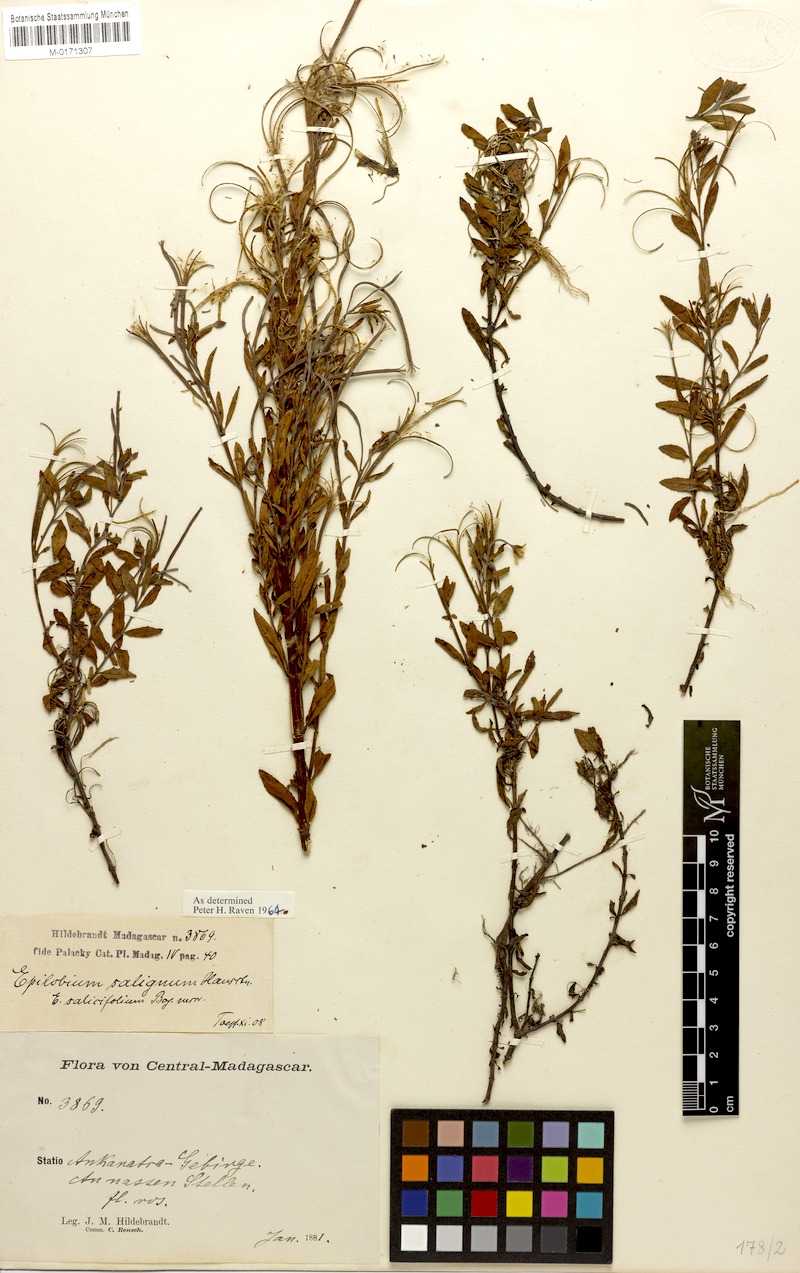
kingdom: Plantae
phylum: Tracheophyta
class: Magnoliopsida
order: Myrtales
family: Onagraceae
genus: Epilobium
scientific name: Epilobium salignum
